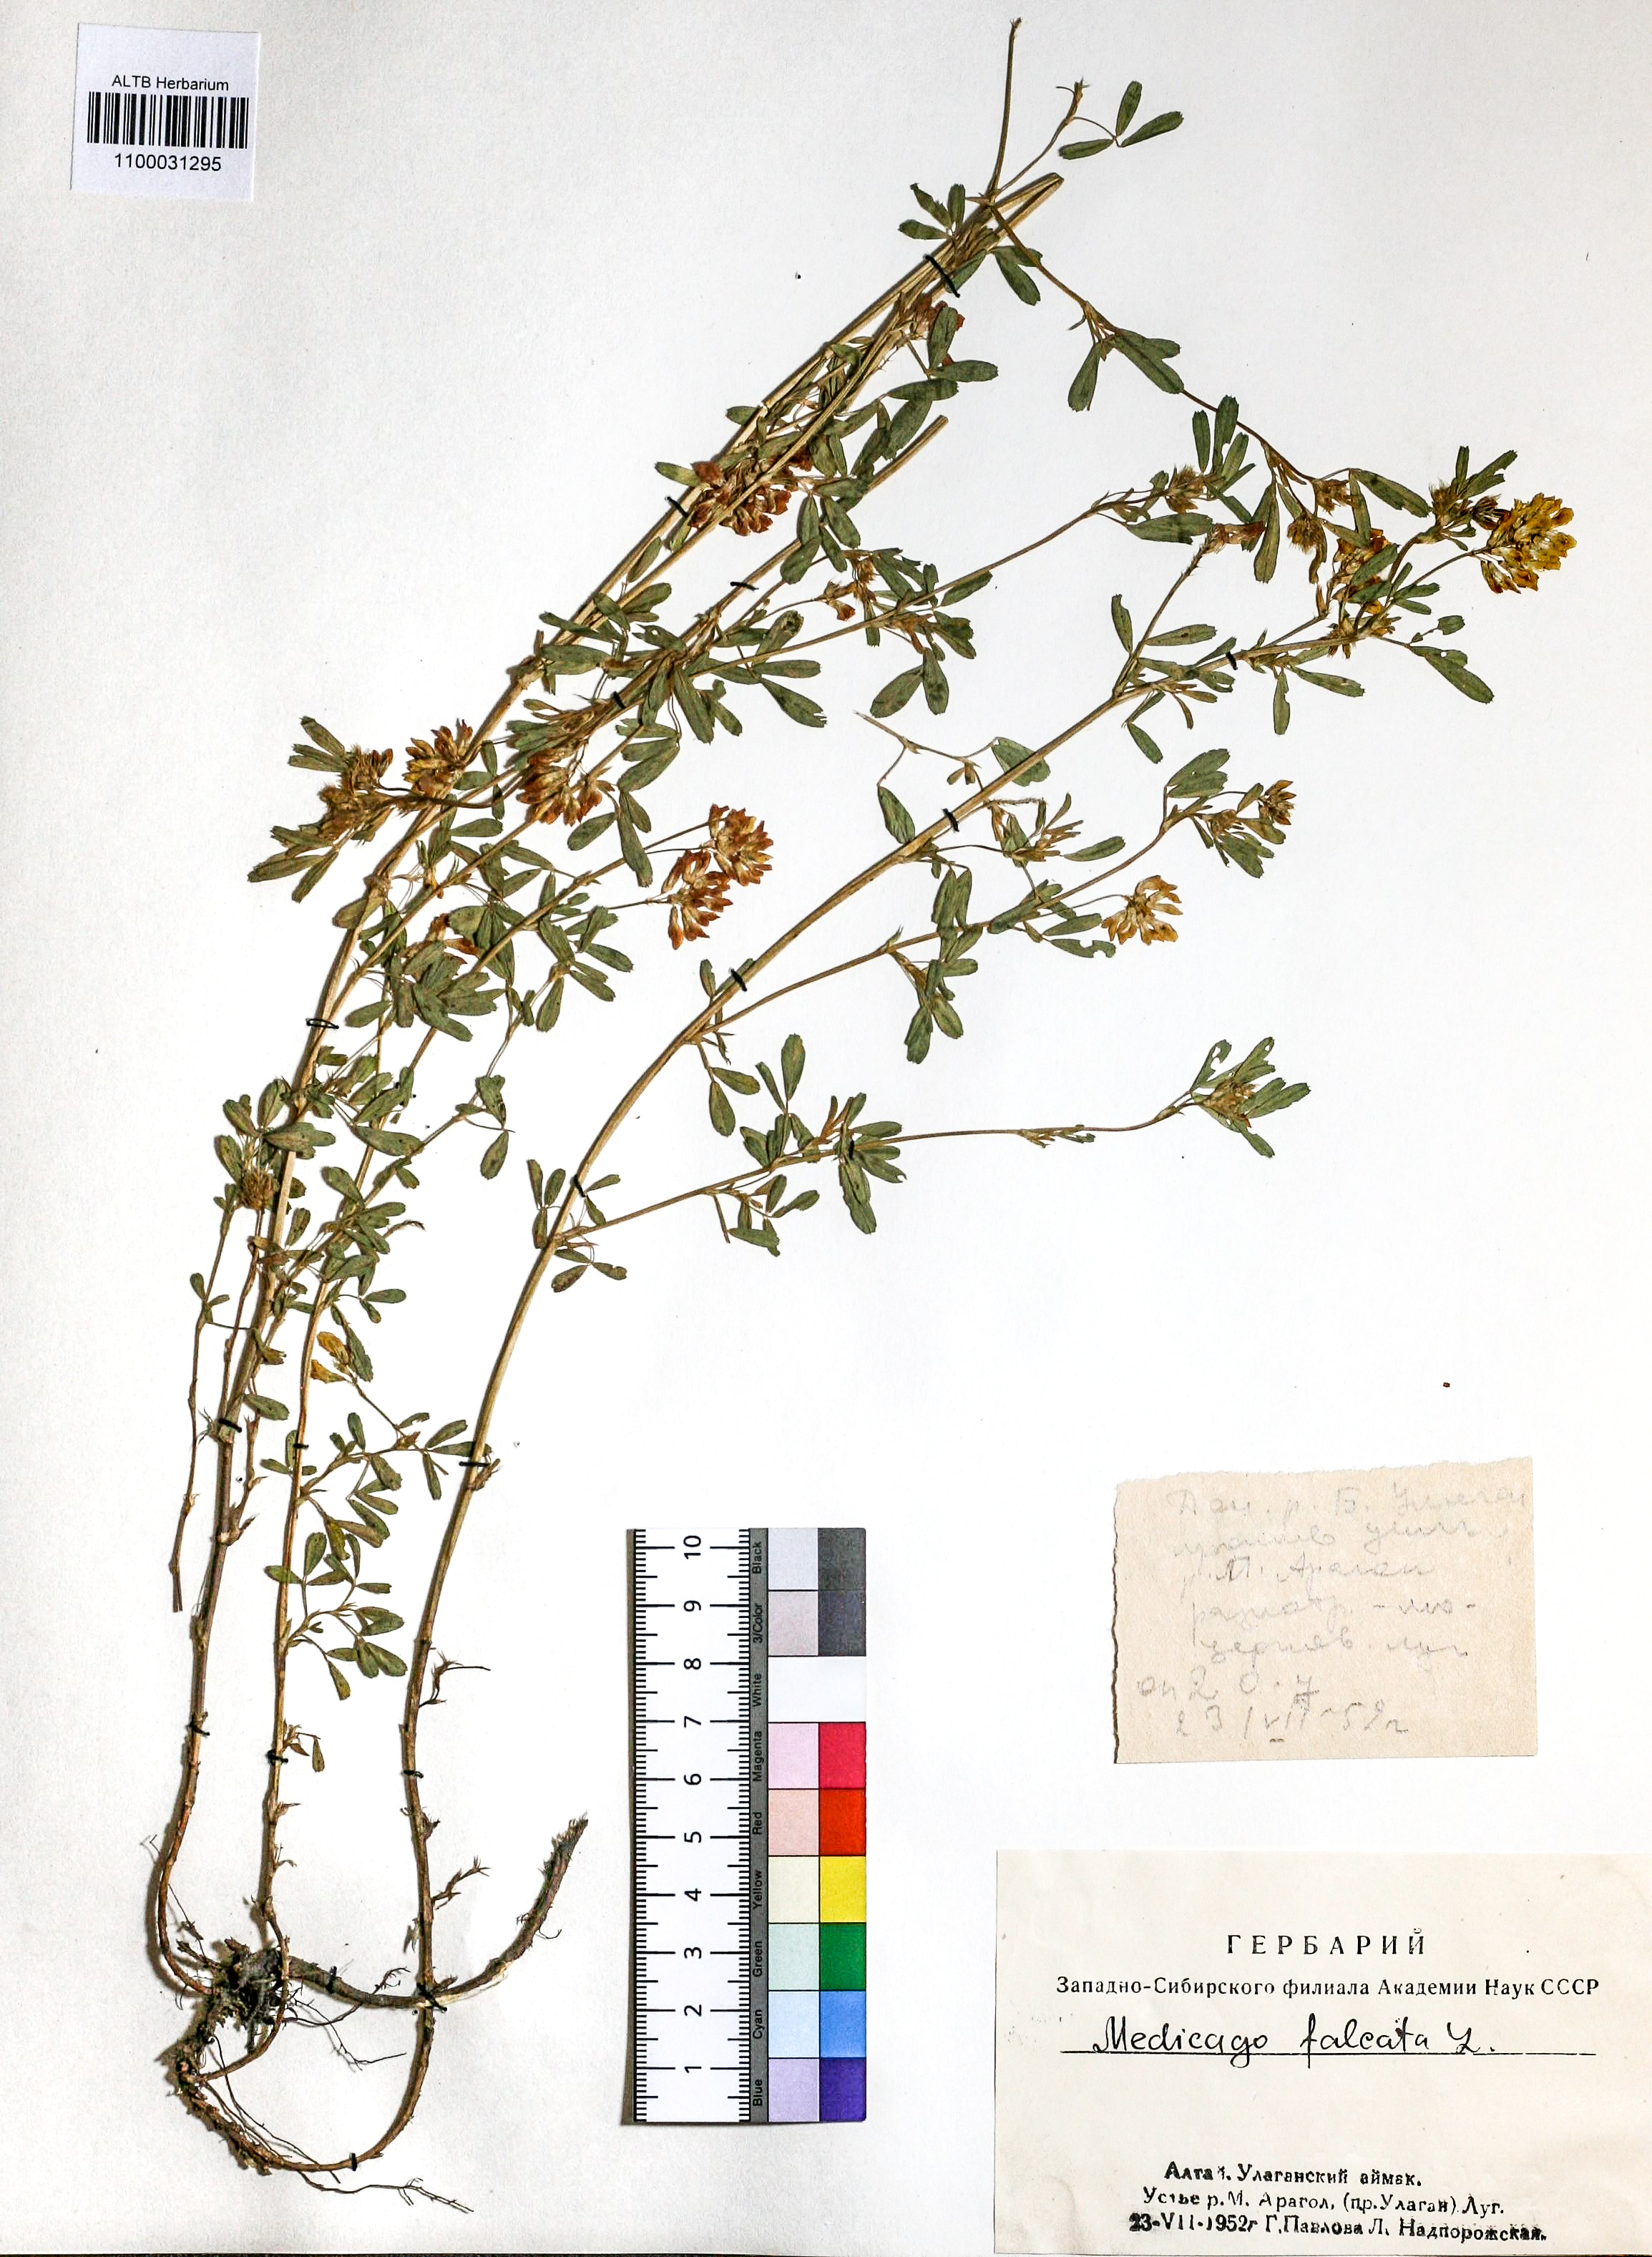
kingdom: Plantae
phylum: Tracheophyta
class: Magnoliopsida
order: Fabales
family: Fabaceae
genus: Medicago
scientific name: Medicago falcata
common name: Sickle medick
